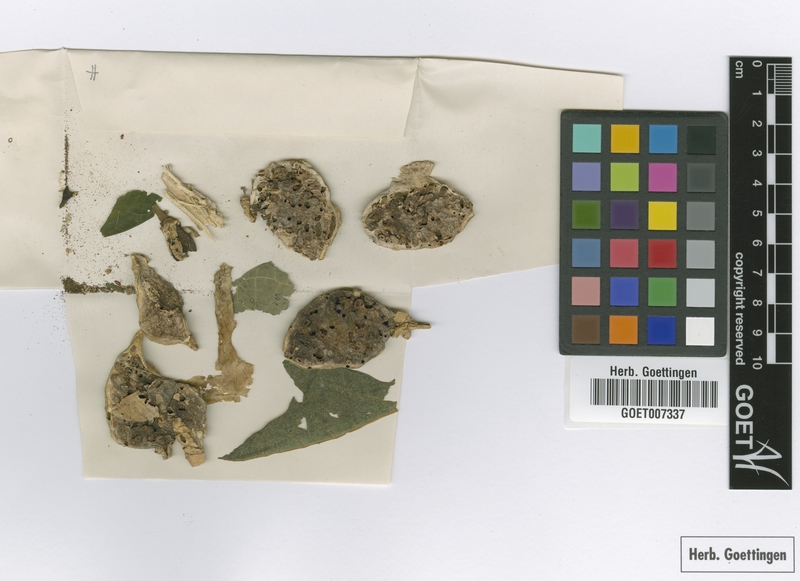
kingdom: Plantae
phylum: Tracheophyta
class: Magnoliopsida
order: Brassicales
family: Caricaceae
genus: Carica
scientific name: Carica papaya
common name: Papaya
